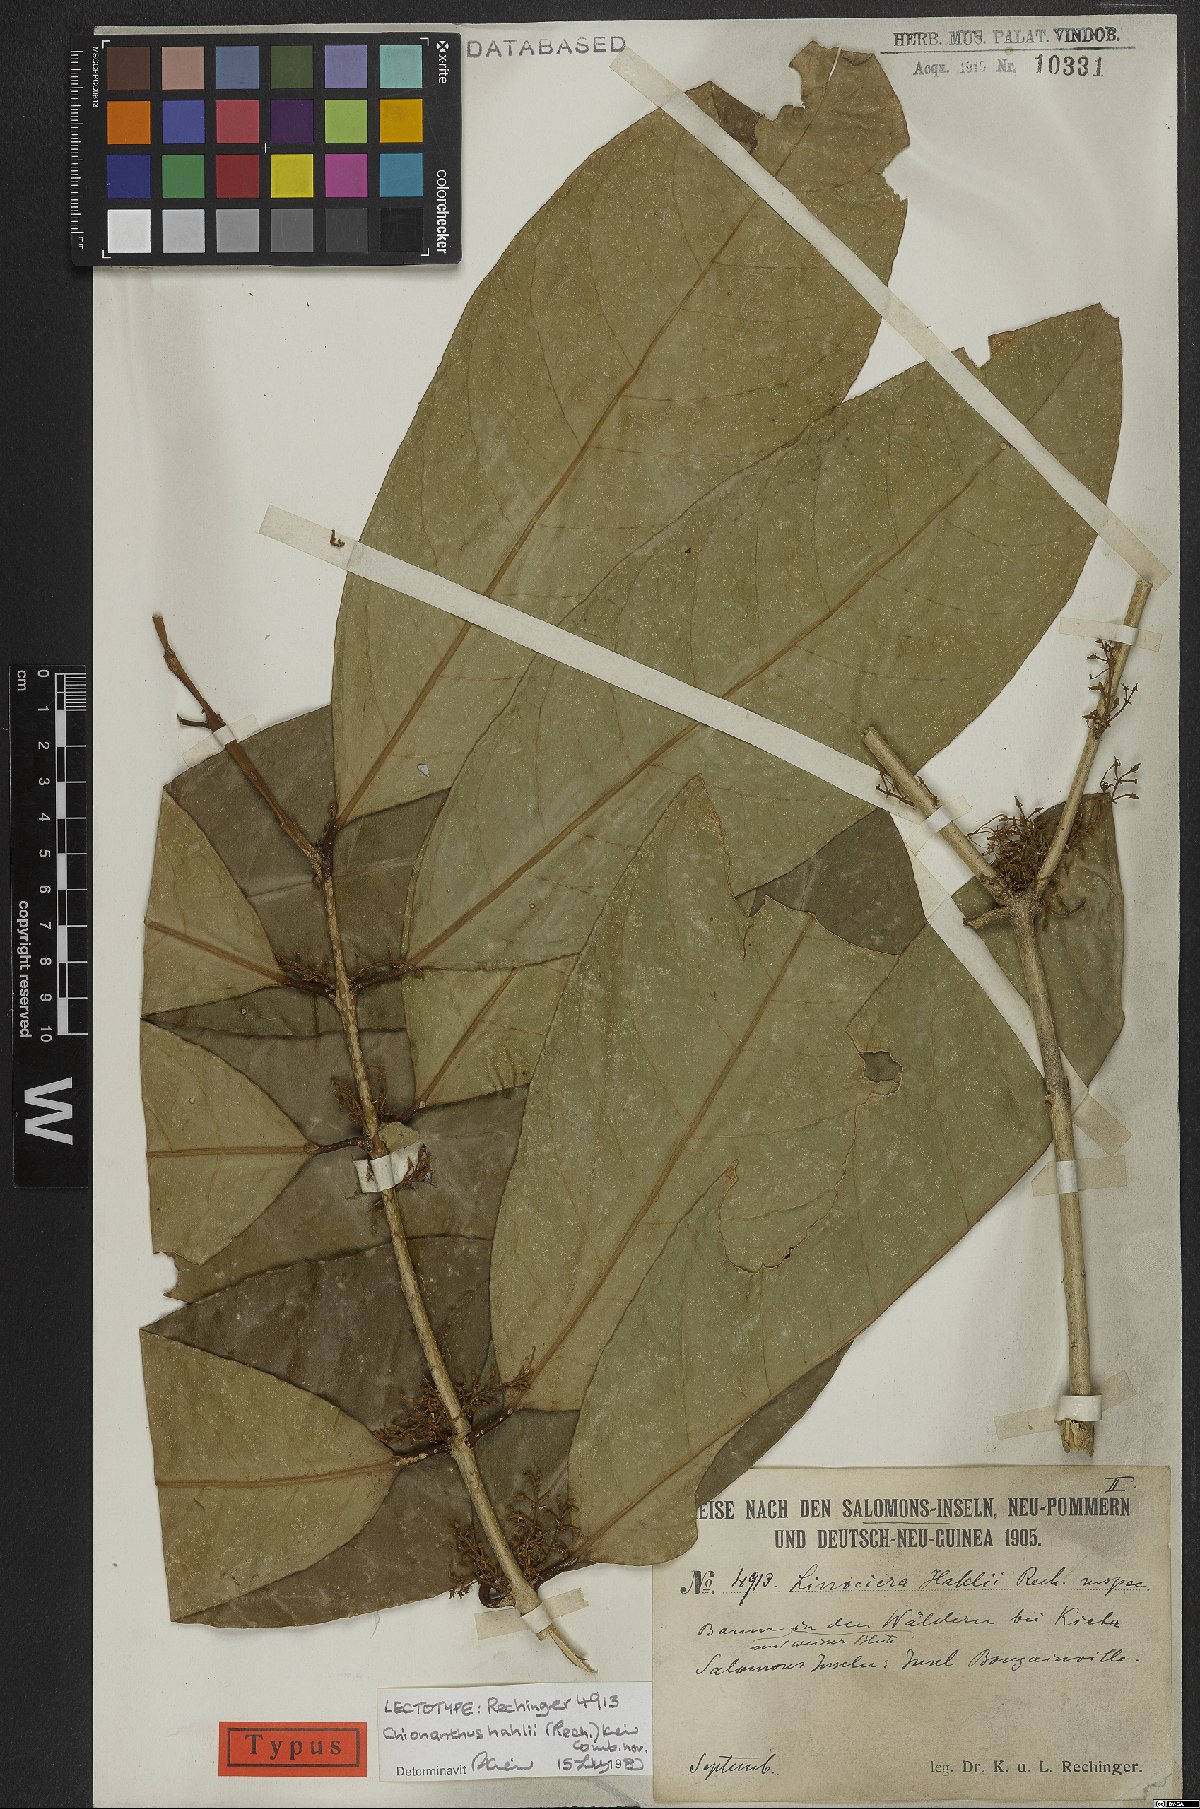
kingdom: Plantae
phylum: Tracheophyta
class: Magnoliopsida
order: Lamiales
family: Oleaceae
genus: Chionanthus
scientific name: Chionanthus hahlii
